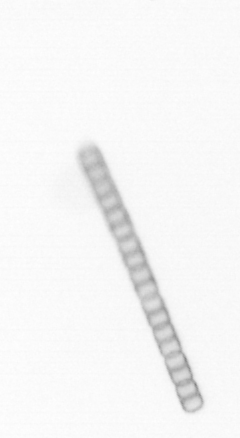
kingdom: Chromista
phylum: Ochrophyta
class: Bacillariophyceae
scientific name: Bacillariophyceae
